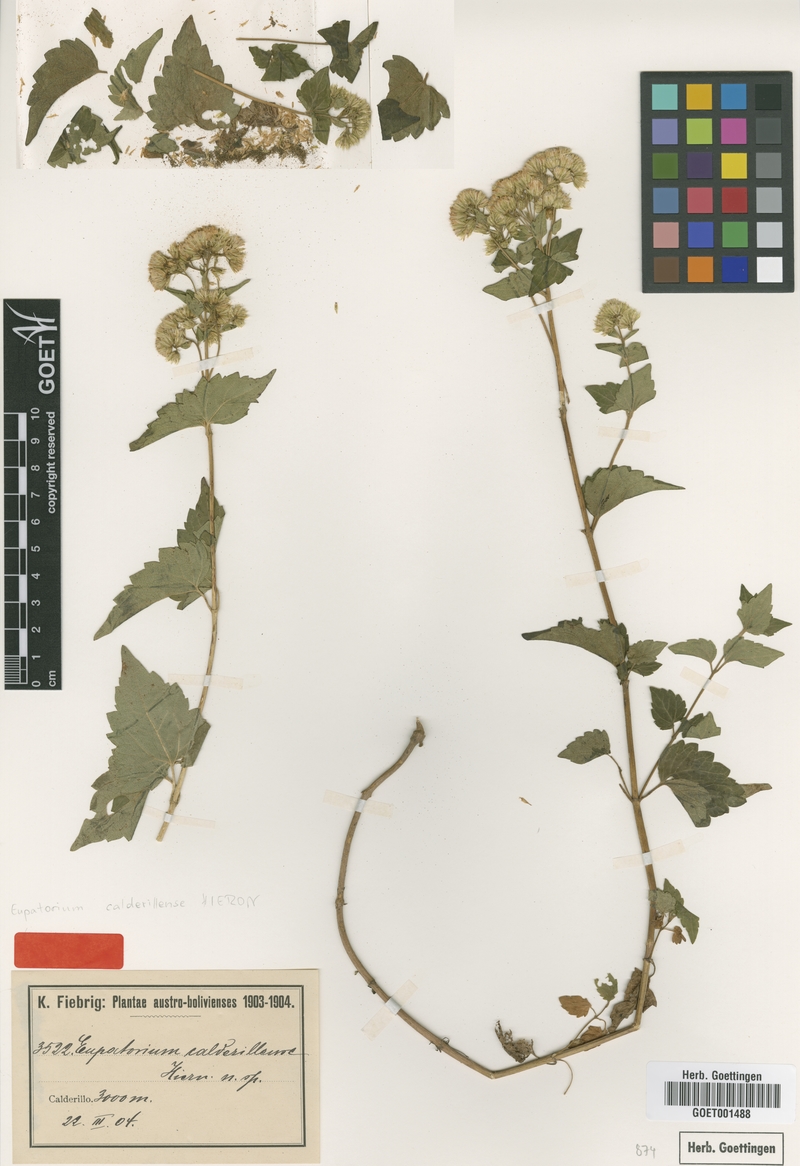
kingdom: Plantae
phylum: Tracheophyta
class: Magnoliopsida
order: Asterales
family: Asteraceae
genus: Ageratina
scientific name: Ageratina lorentzii
